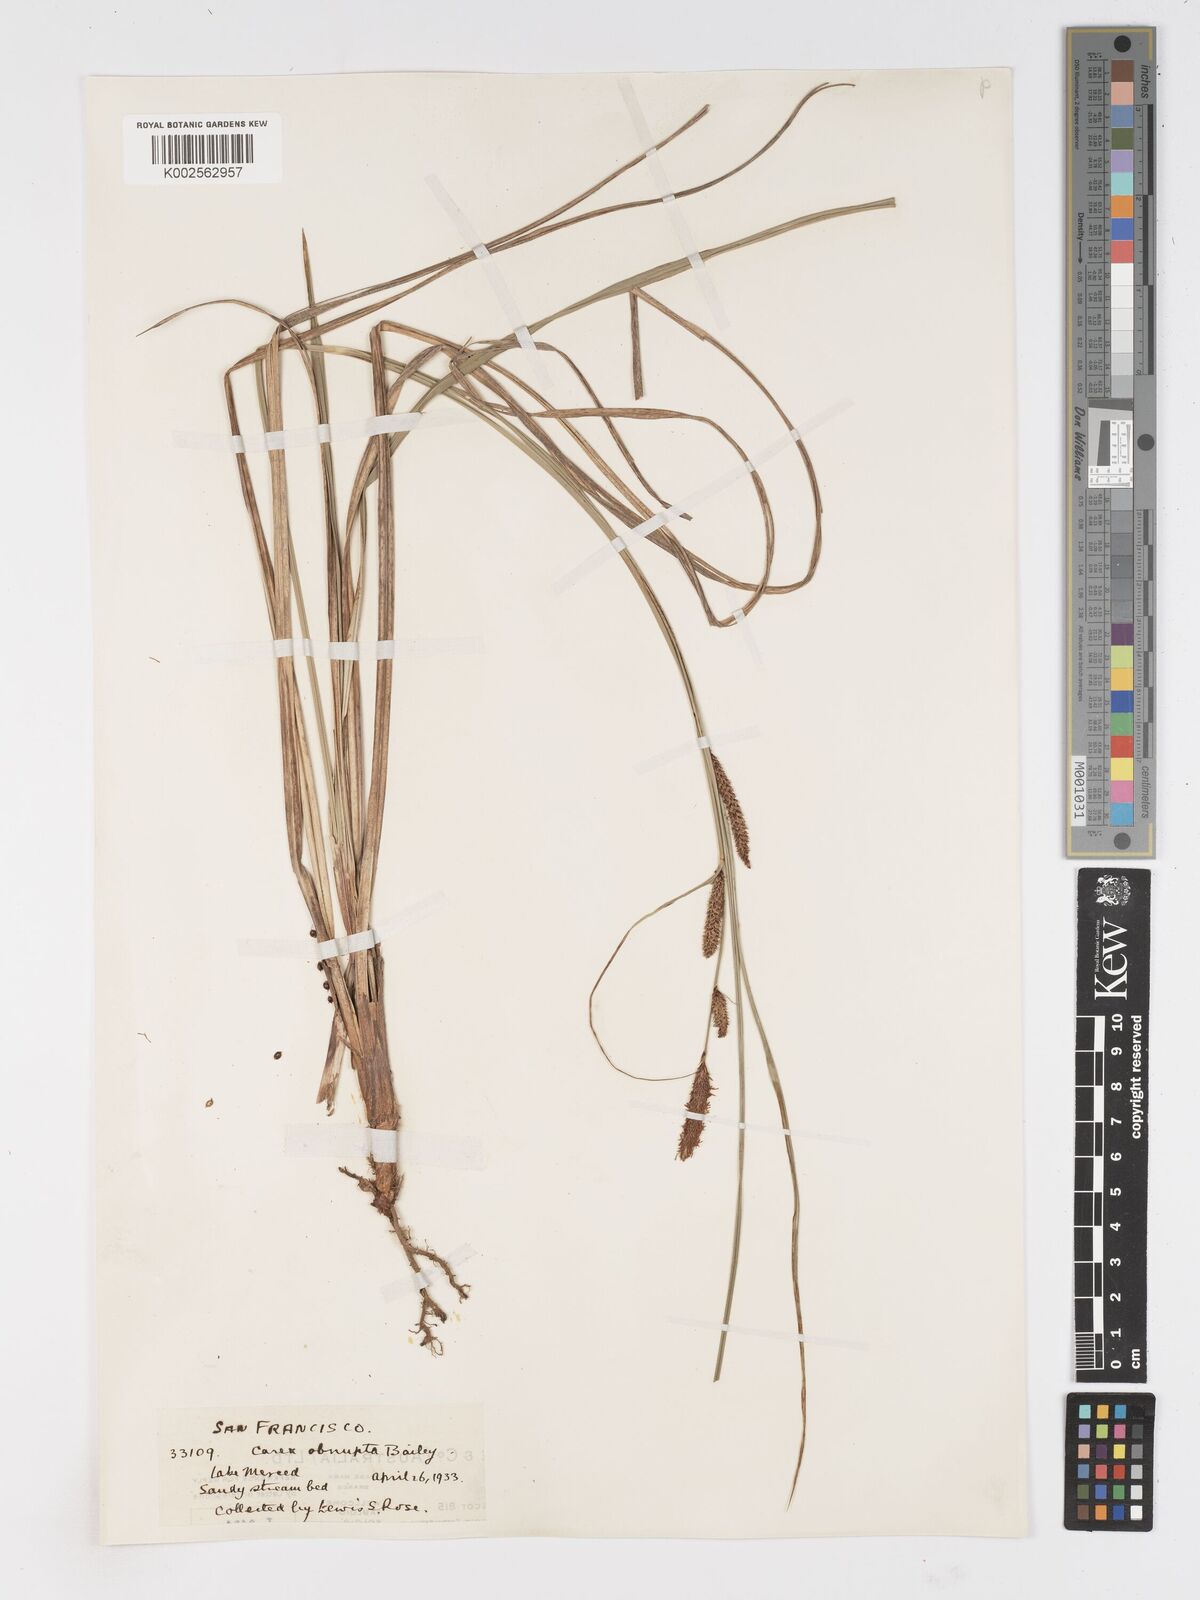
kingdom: Plantae
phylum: Tracheophyta
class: Liliopsida
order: Poales
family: Cyperaceae
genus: Carex
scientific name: Carex obnupta
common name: Slough sedge
